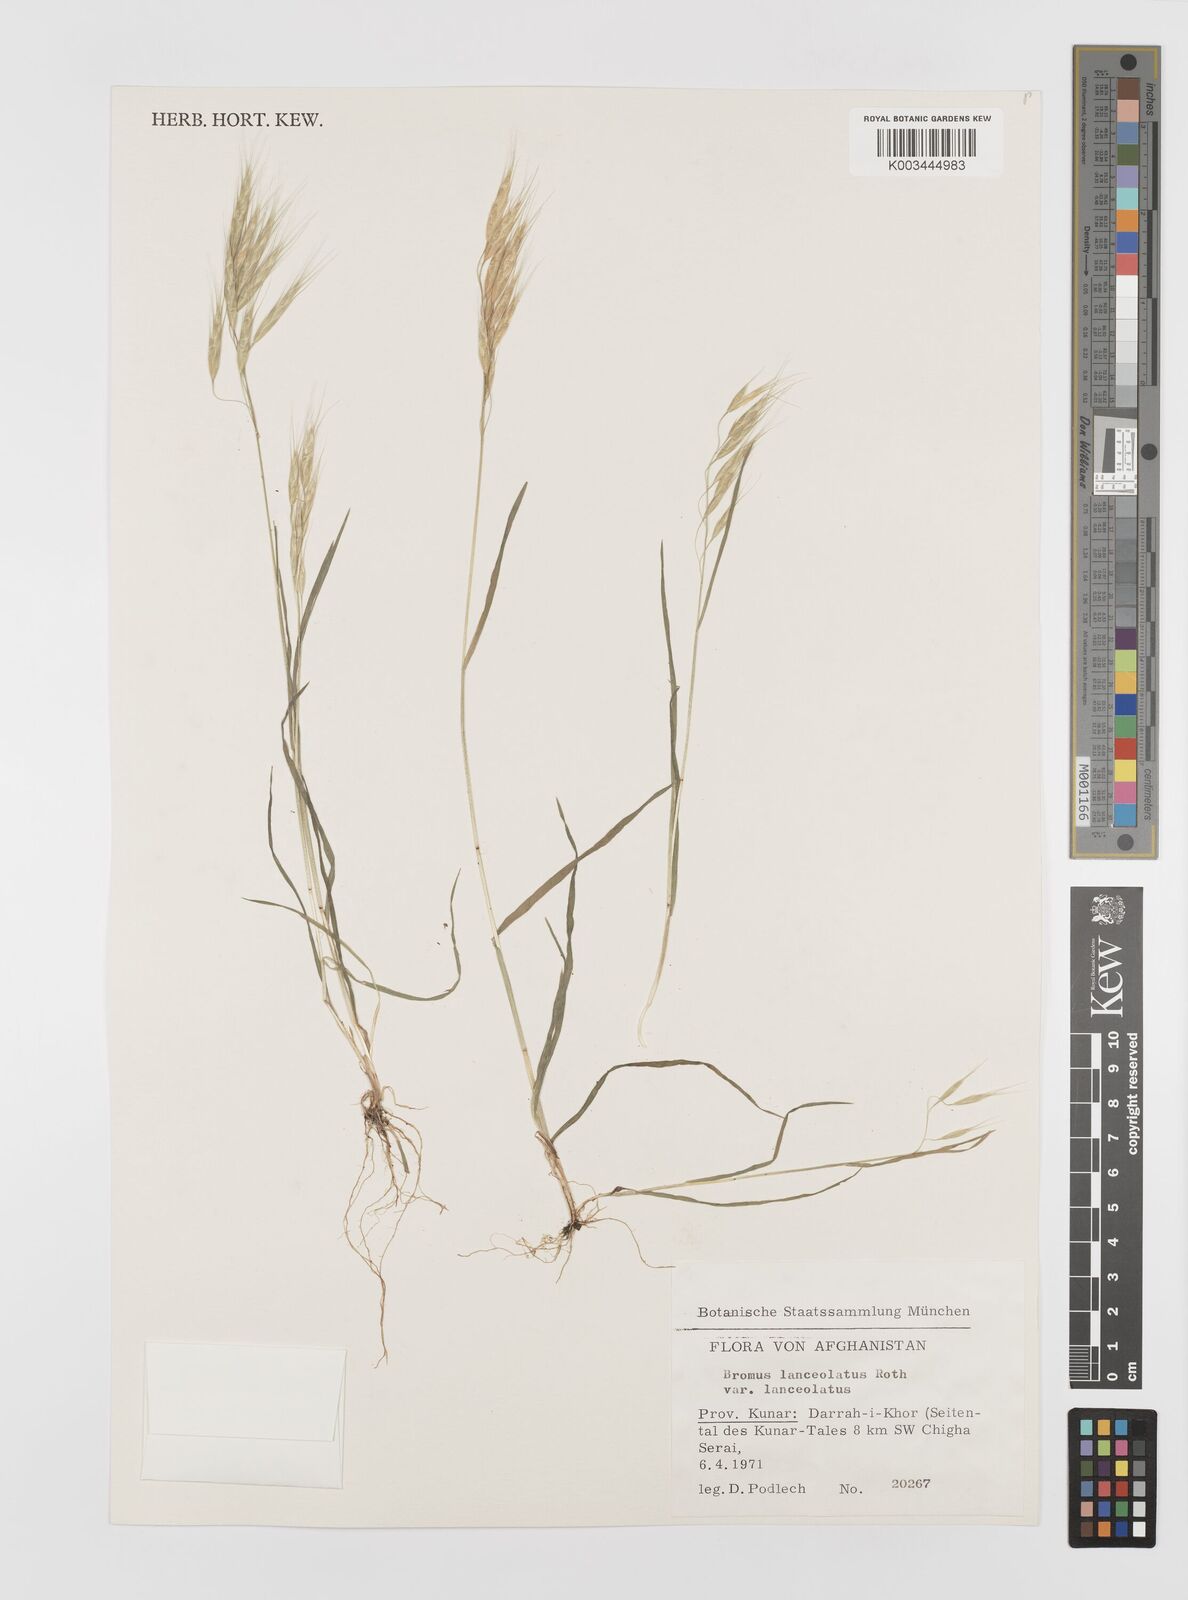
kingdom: Plantae
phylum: Tracheophyta
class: Liliopsida
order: Poales
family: Poaceae
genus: Bromus
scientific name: Bromus lanceolatus
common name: Mediterranean brome
